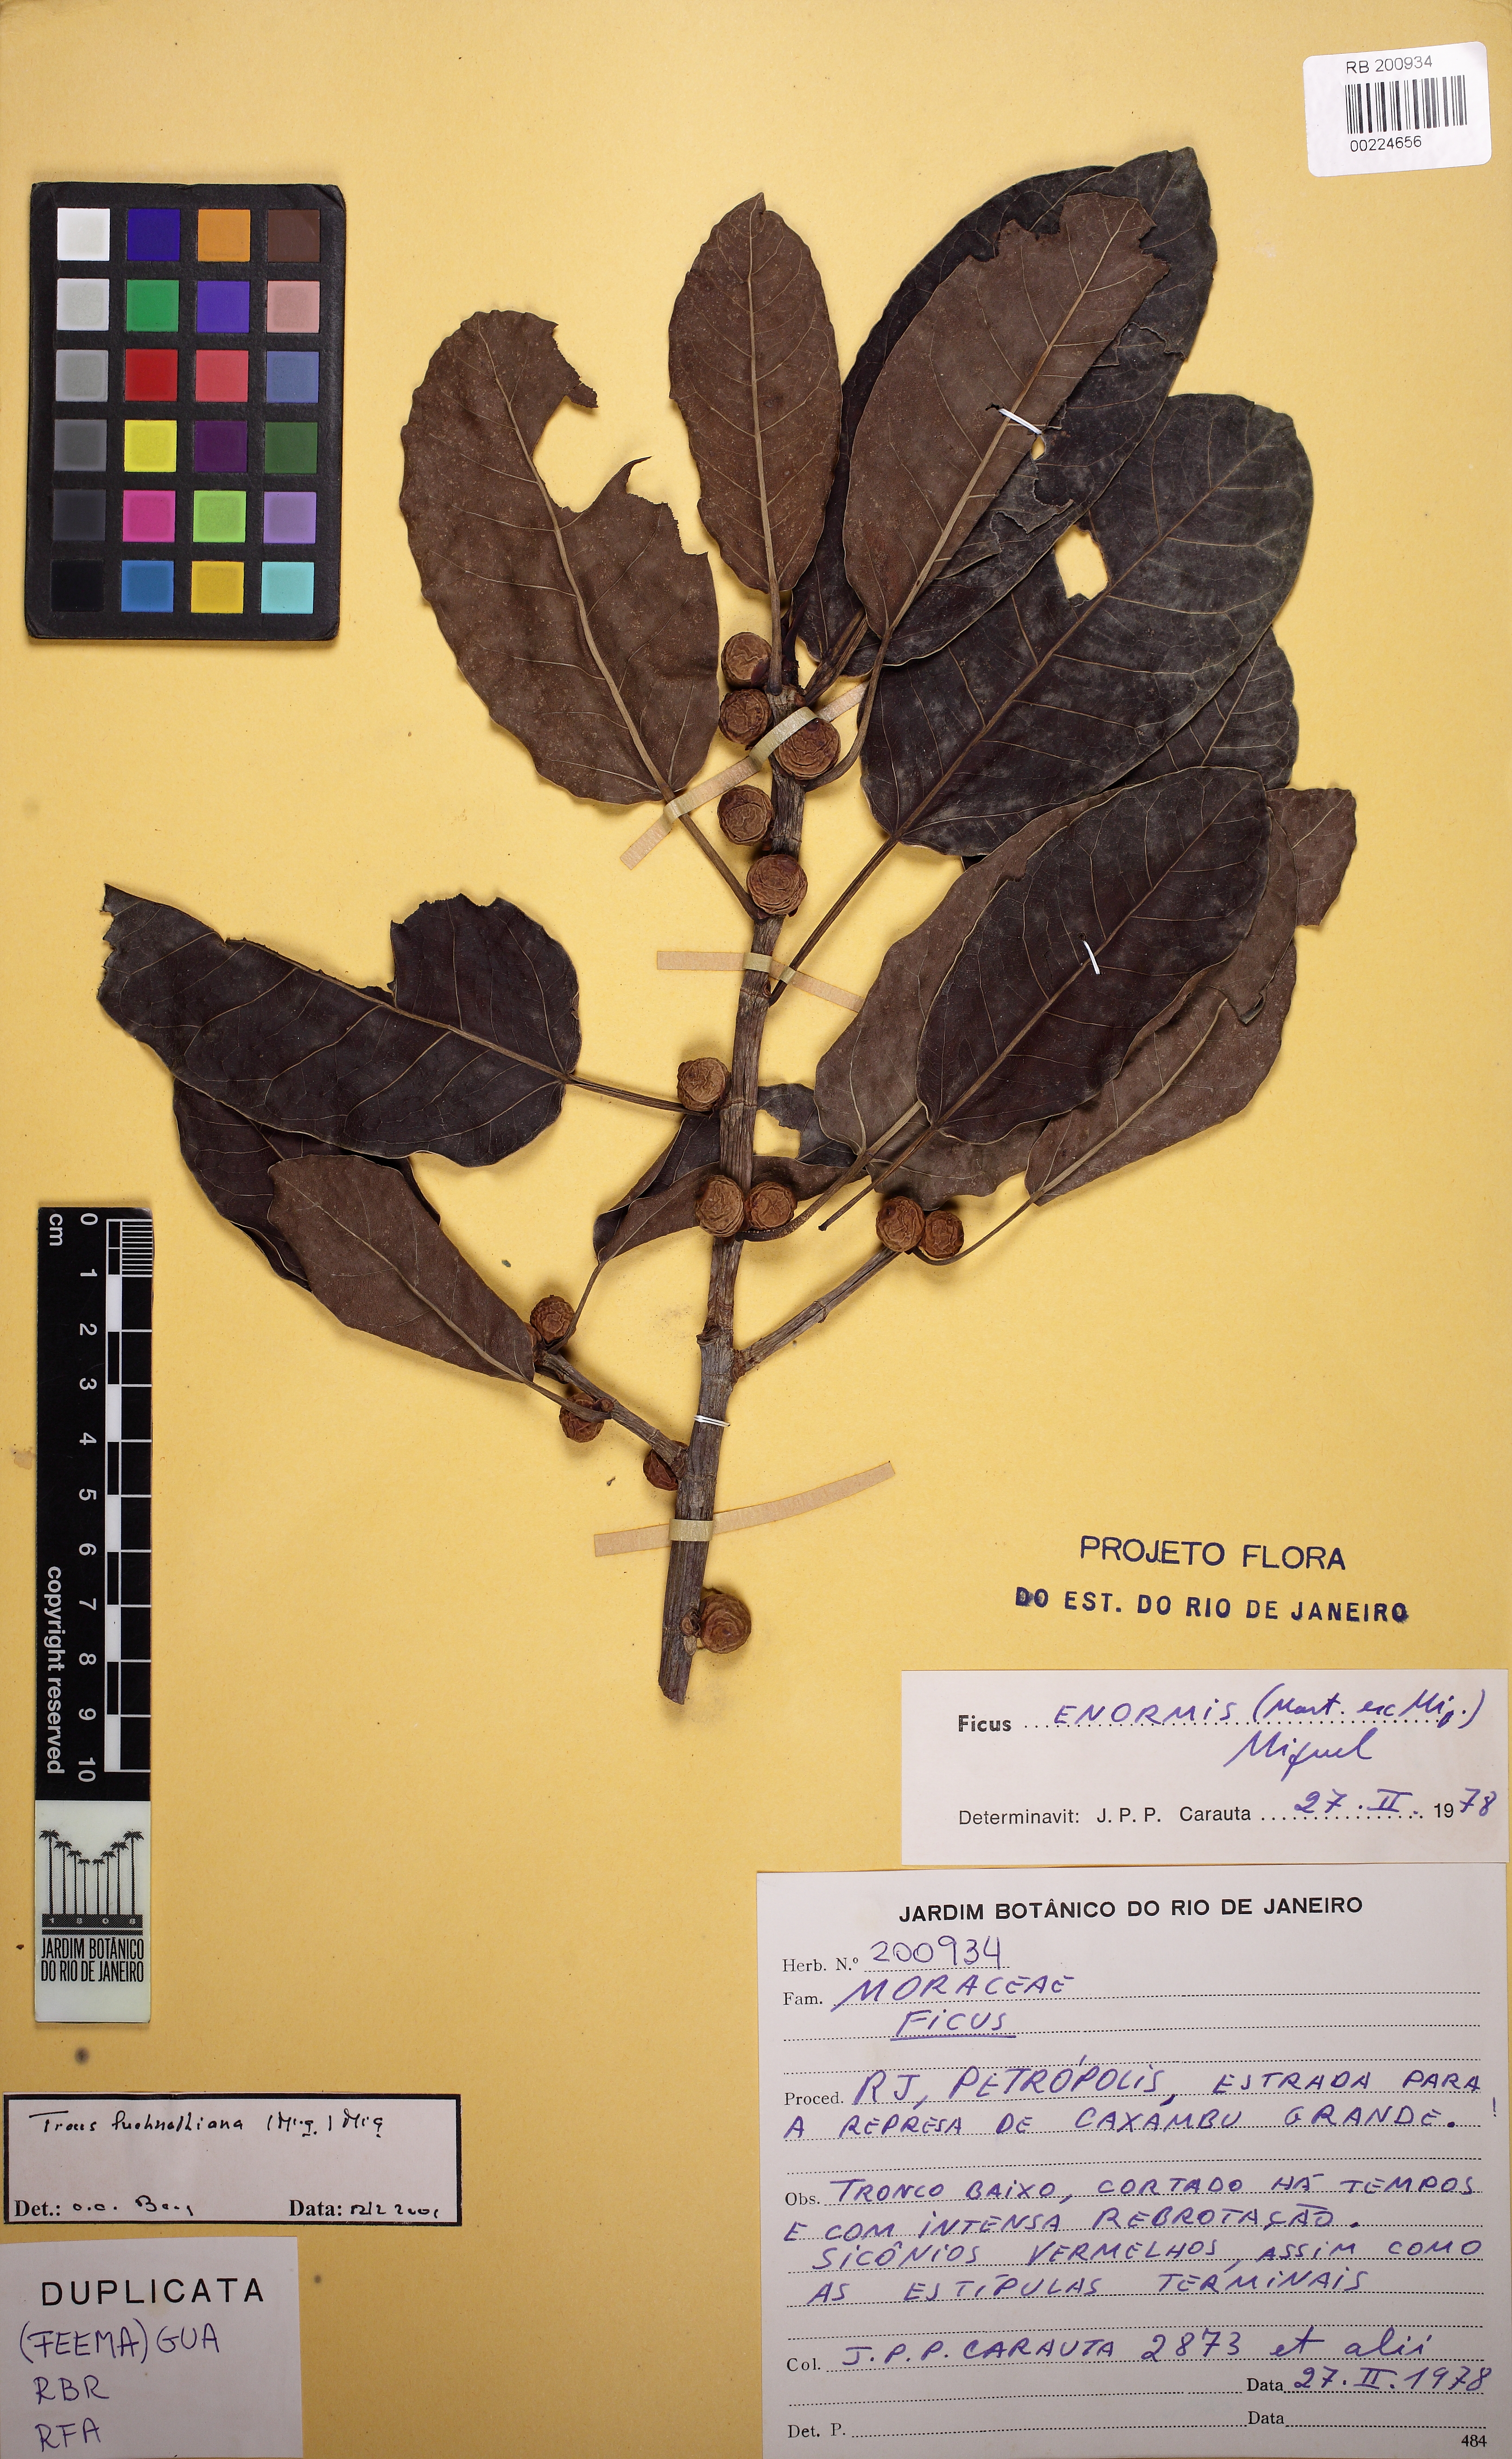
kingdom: Plantae
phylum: Tracheophyta
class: Magnoliopsida
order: Rosales
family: Moraceae
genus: Ficus
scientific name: Ficus luschnathiana
